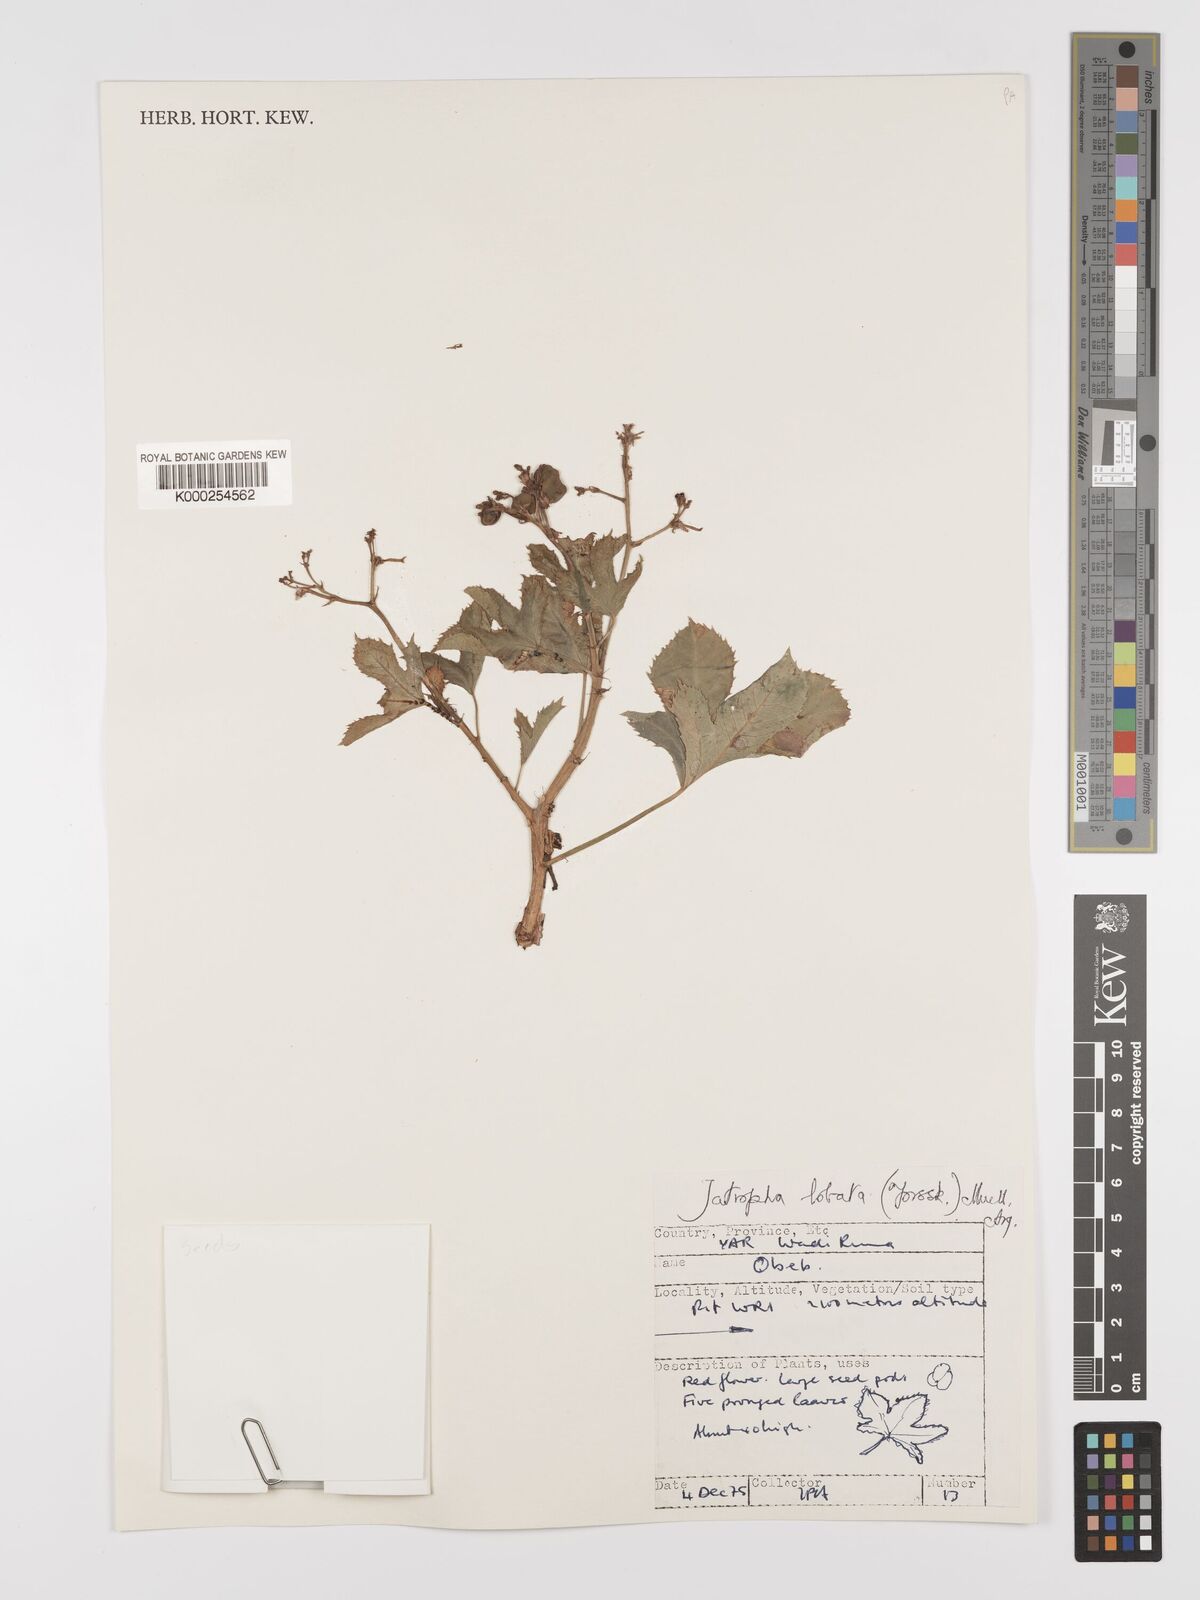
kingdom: Plantae
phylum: Tracheophyta
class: Magnoliopsida
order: Malpighiales
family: Euphorbiaceae
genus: Jatropha
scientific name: Jatropha glauca
